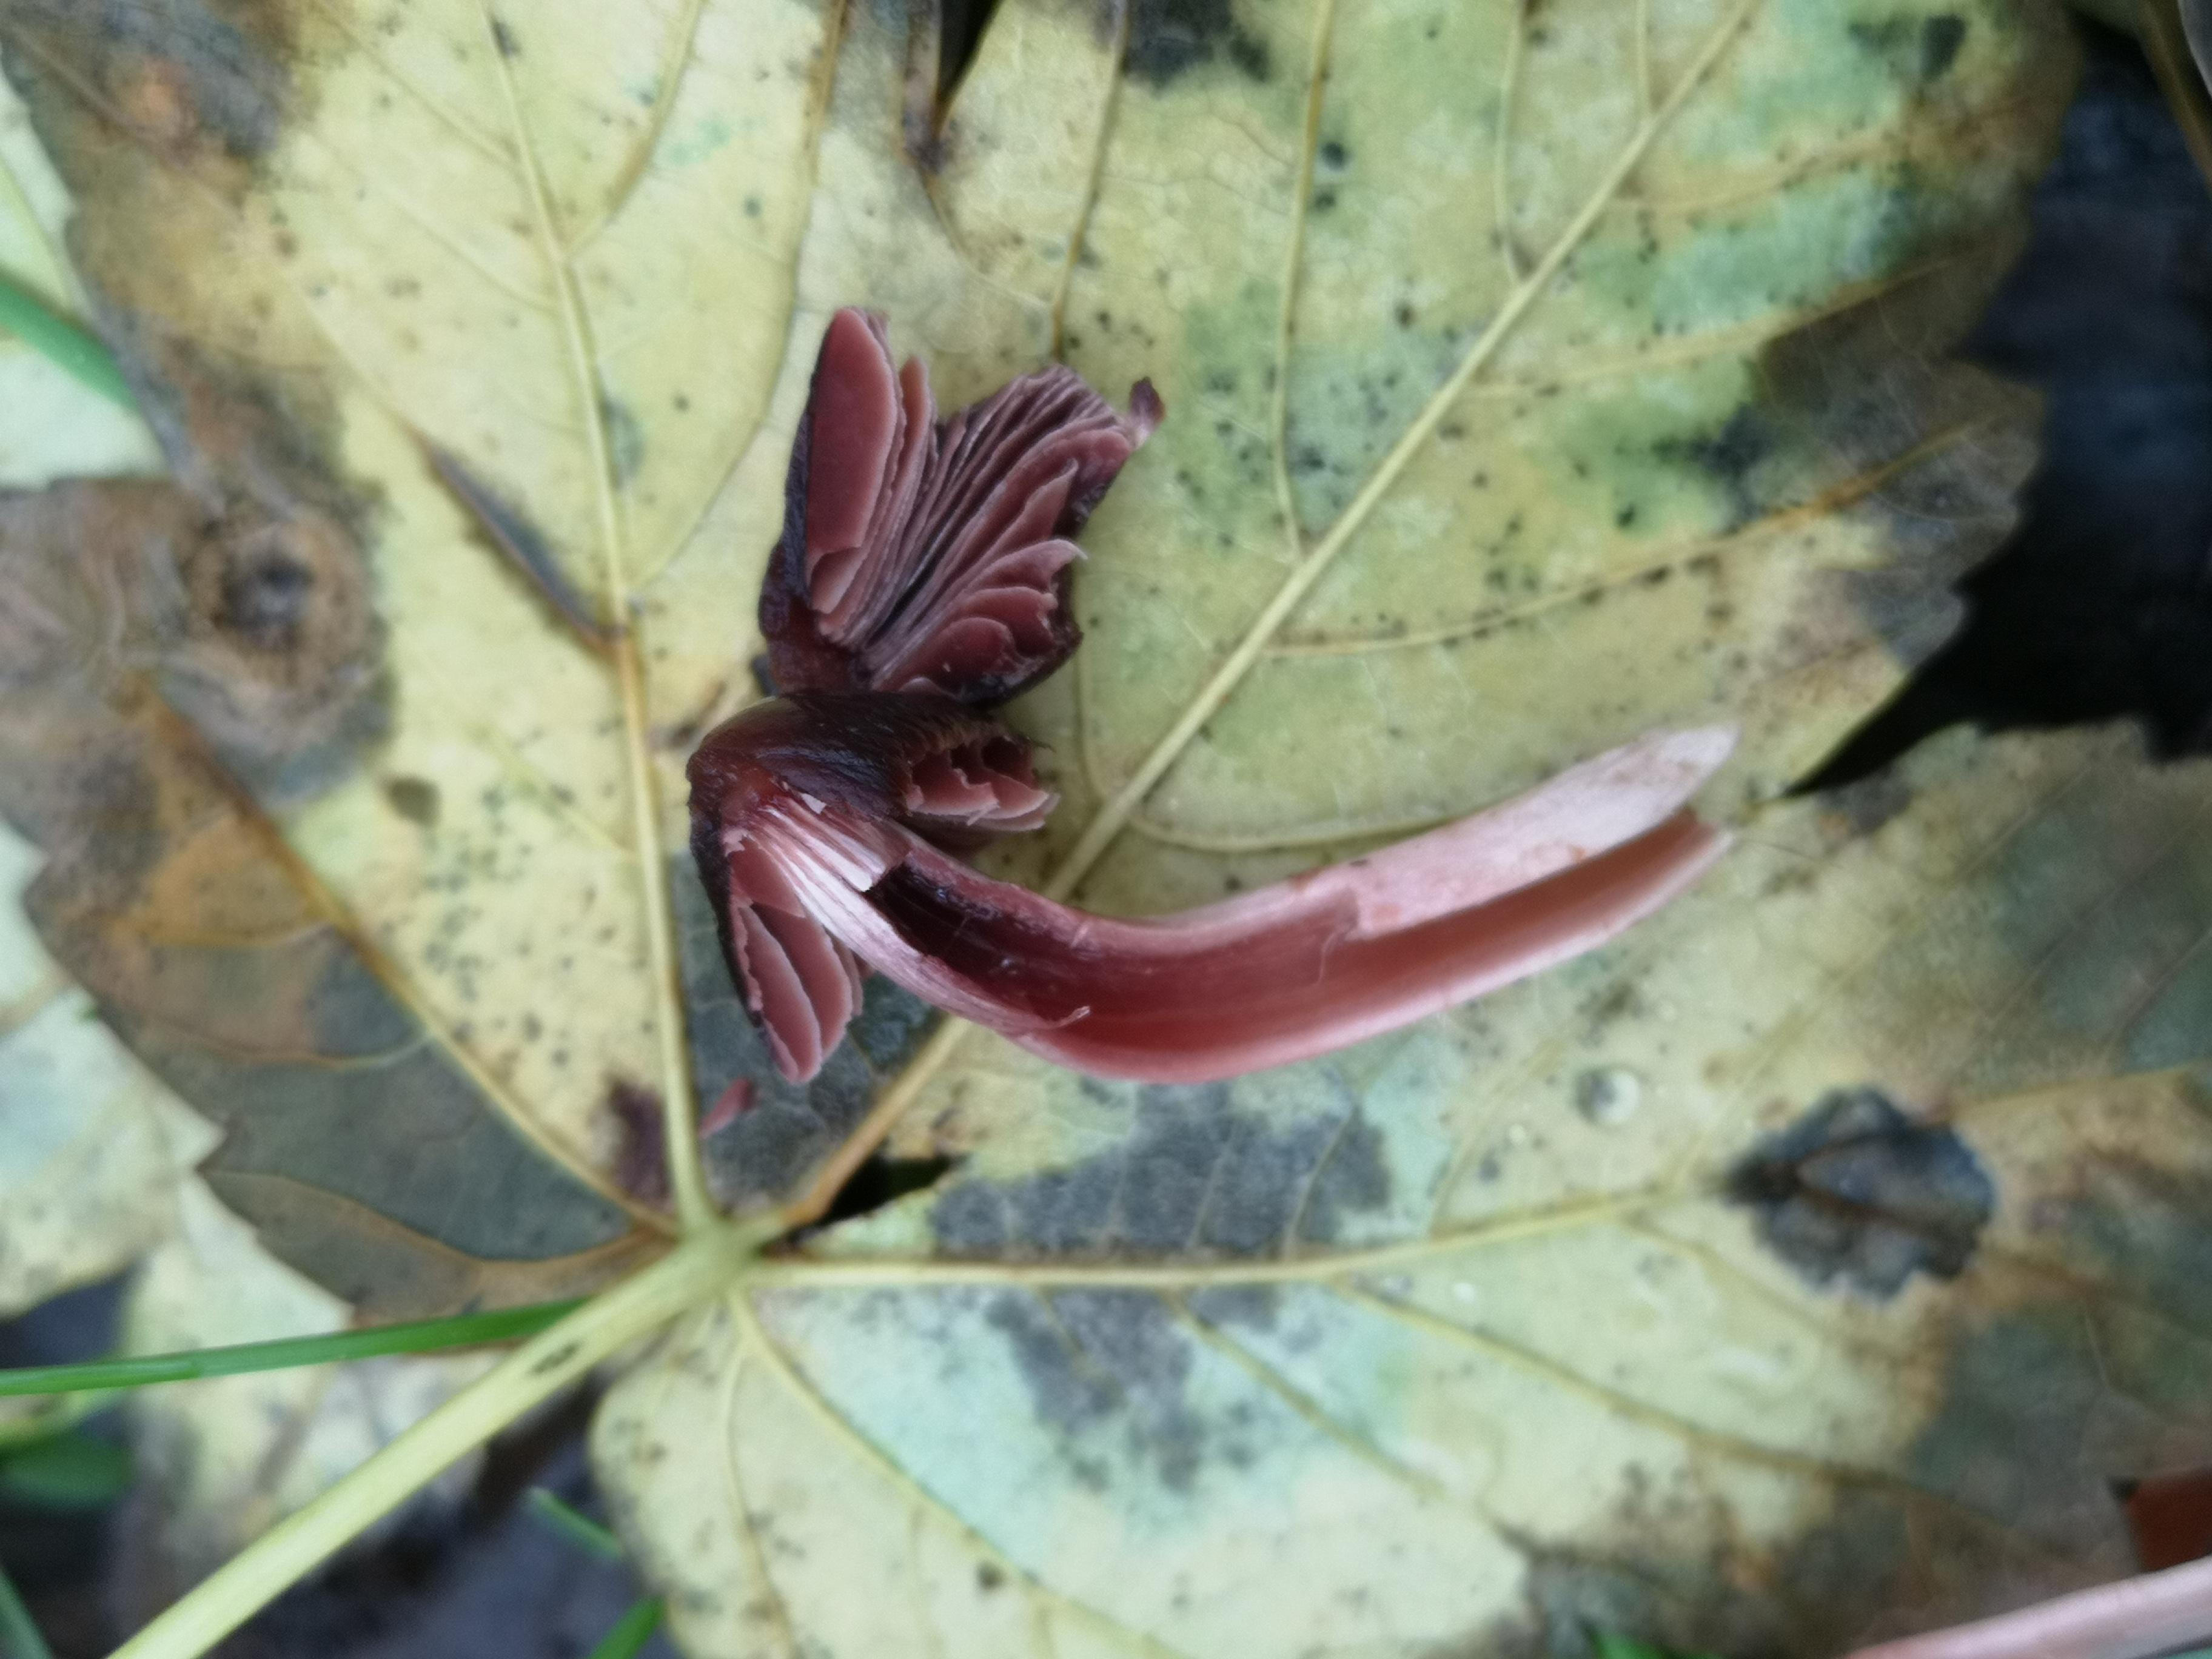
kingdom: Fungi
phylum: Basidiomycota
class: Agaricomycetes
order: Agaricales
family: Psathyrellaceae
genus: Psathyrella
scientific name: Psathyrella bipellis
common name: vinrød mørkhat
